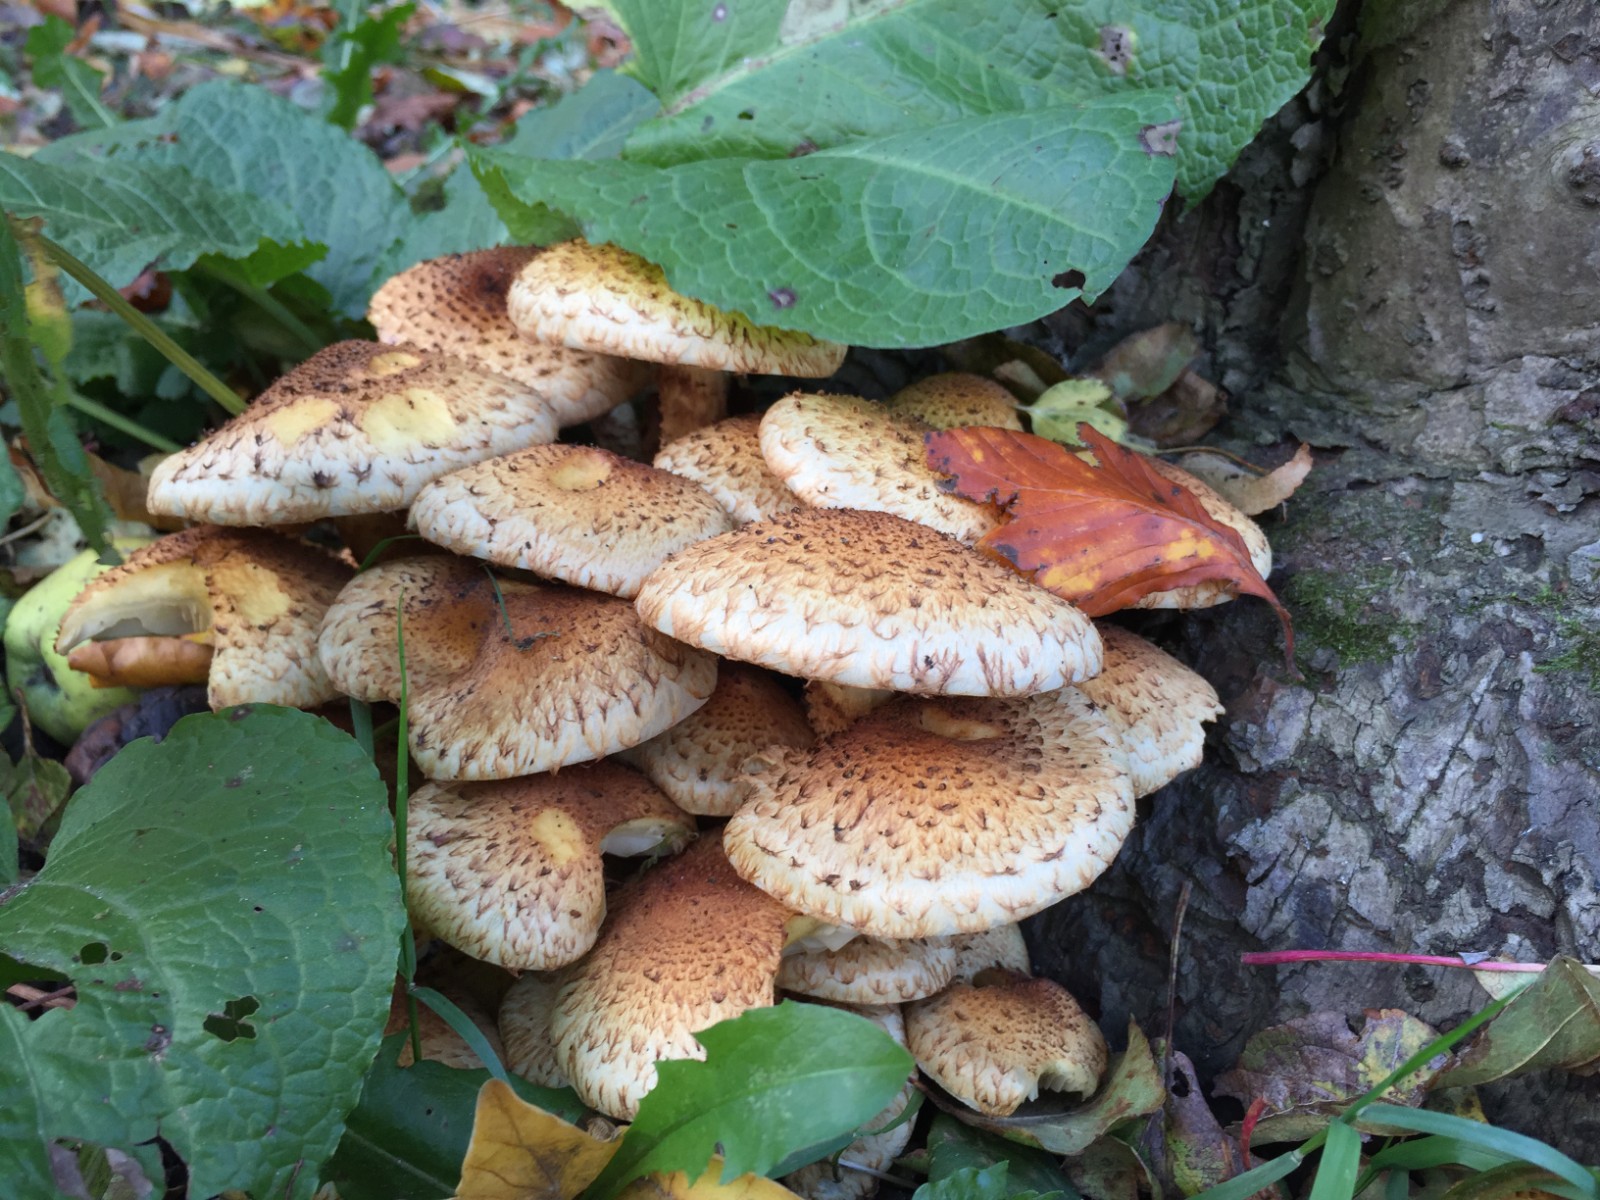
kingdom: Fungi
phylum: Basidiomycota
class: Agaricomycetes
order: Agaricales
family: Strophariaceae
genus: Pholiota
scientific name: Pholiota squarrosa
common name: krumskællet skælhat
